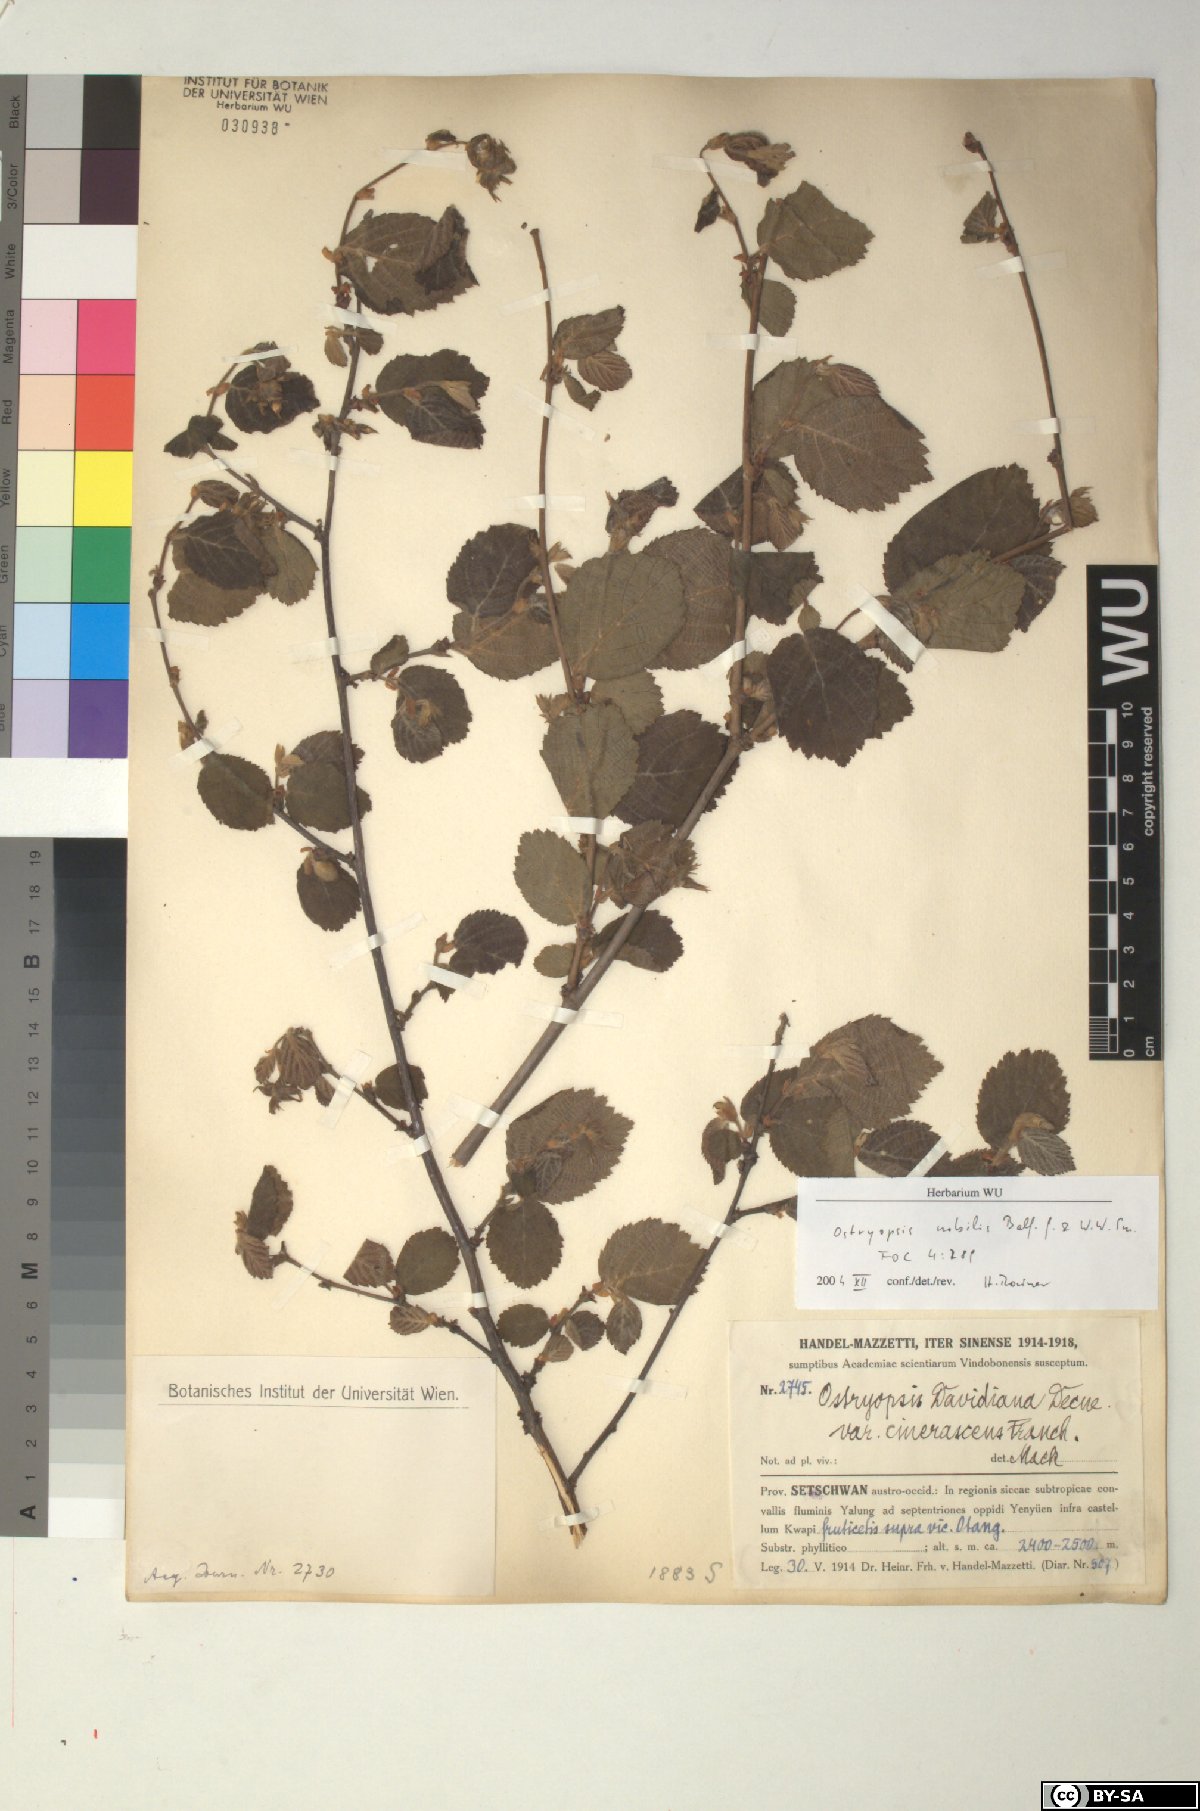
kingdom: Plantae
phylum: Tracheophyta
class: Magnoliopsida
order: Fagales
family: Betulaceae
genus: Ostryopsis
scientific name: Ostryopsis nobilis
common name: Yunnan tiger hazel
